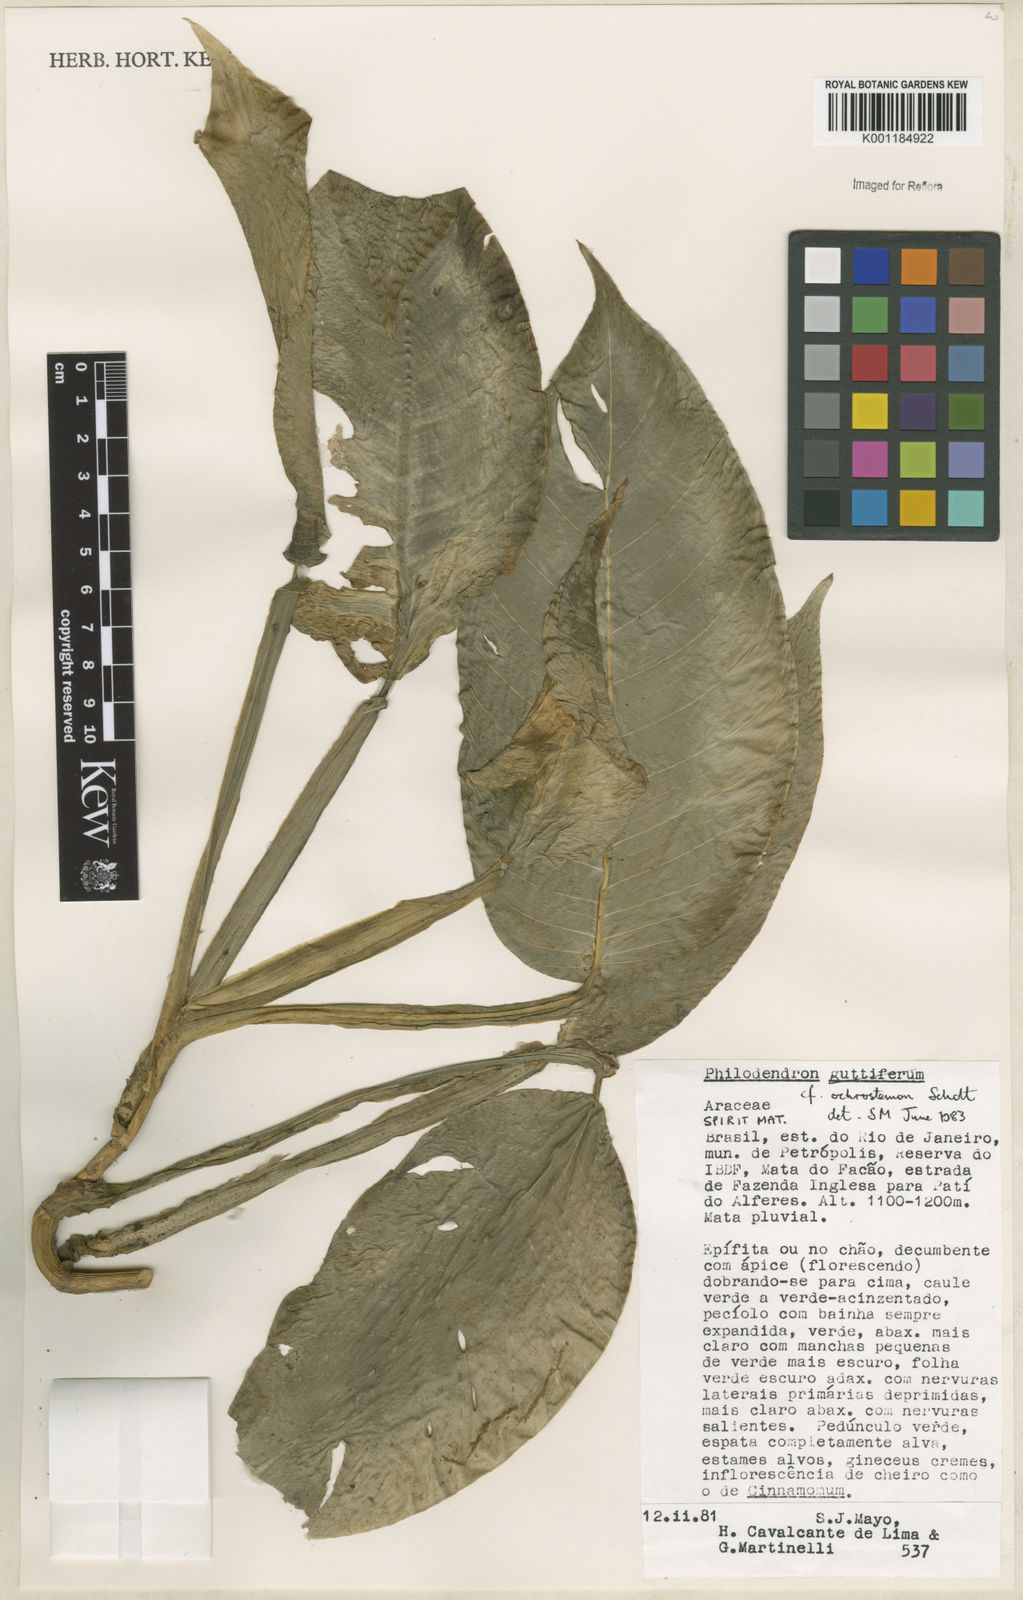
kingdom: Plantae
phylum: Tracheophyta
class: Liliopsida
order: Alismatales
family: Araceae
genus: Philodendron
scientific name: Philodendron ochrostemon
